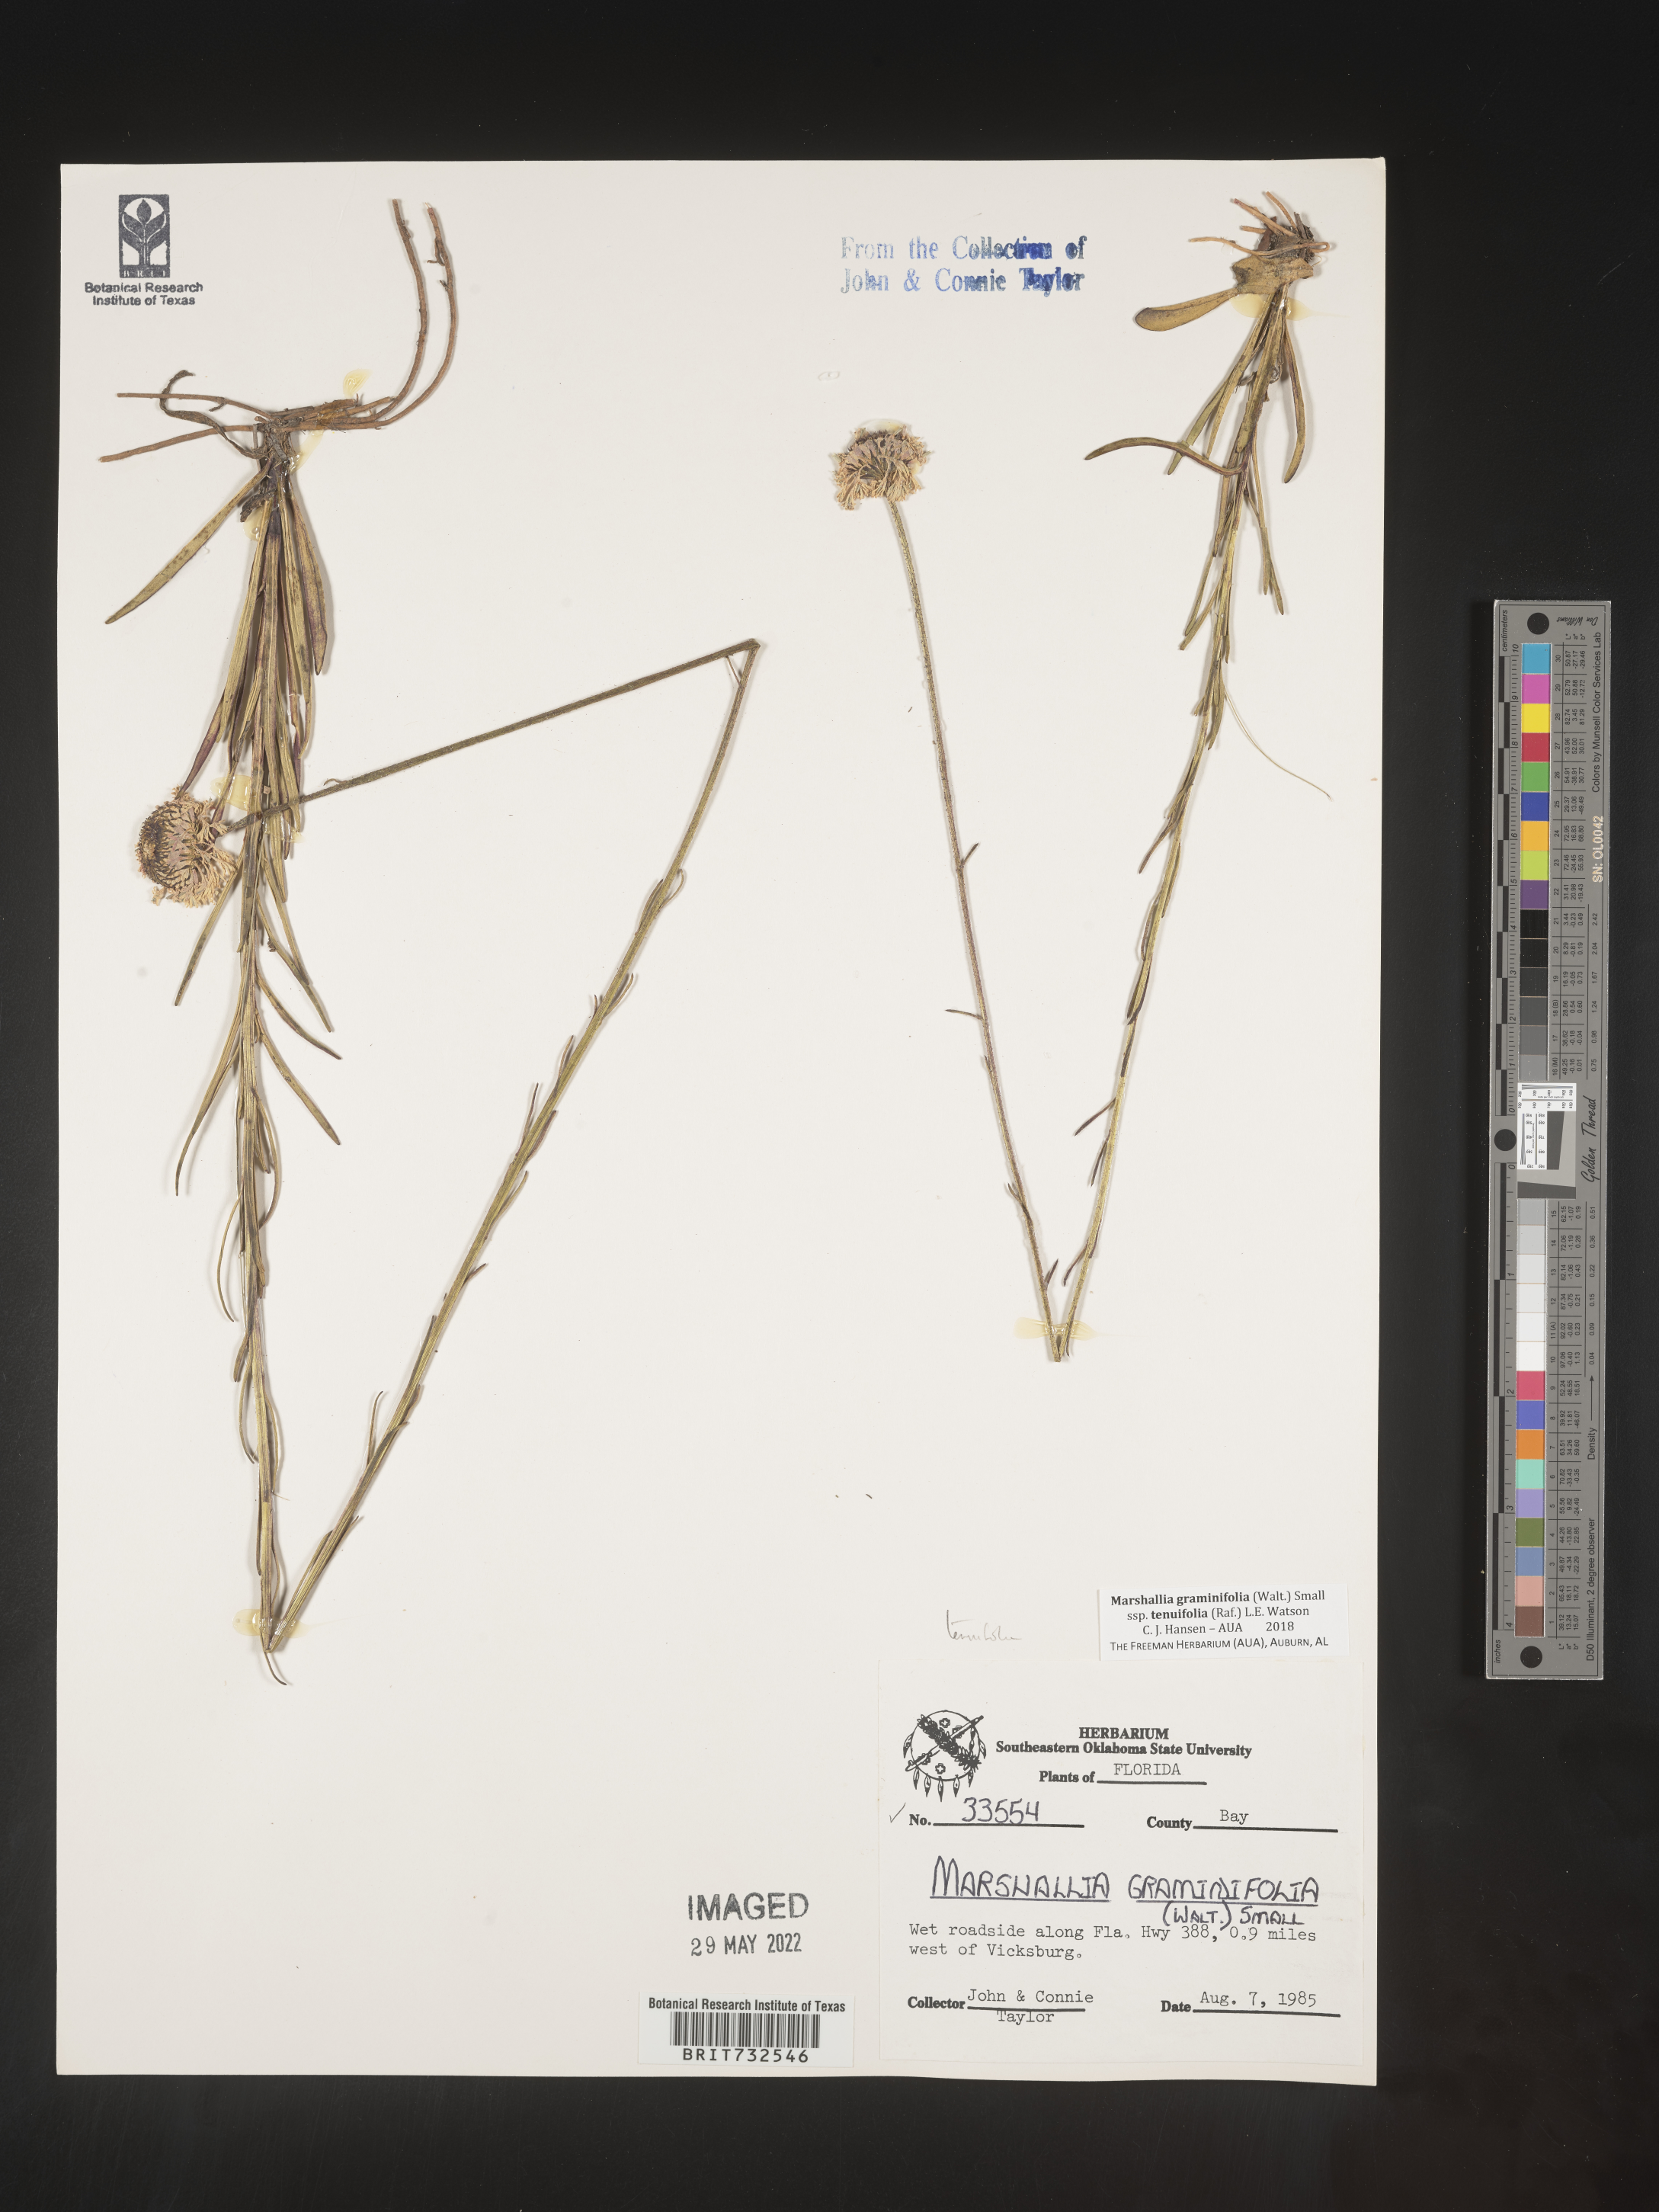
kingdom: Plantae
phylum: Tracheophyta
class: Magnoliopsida
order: Asterales
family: Asteraceae
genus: Marshallia
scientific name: Marshallia graminifolia
